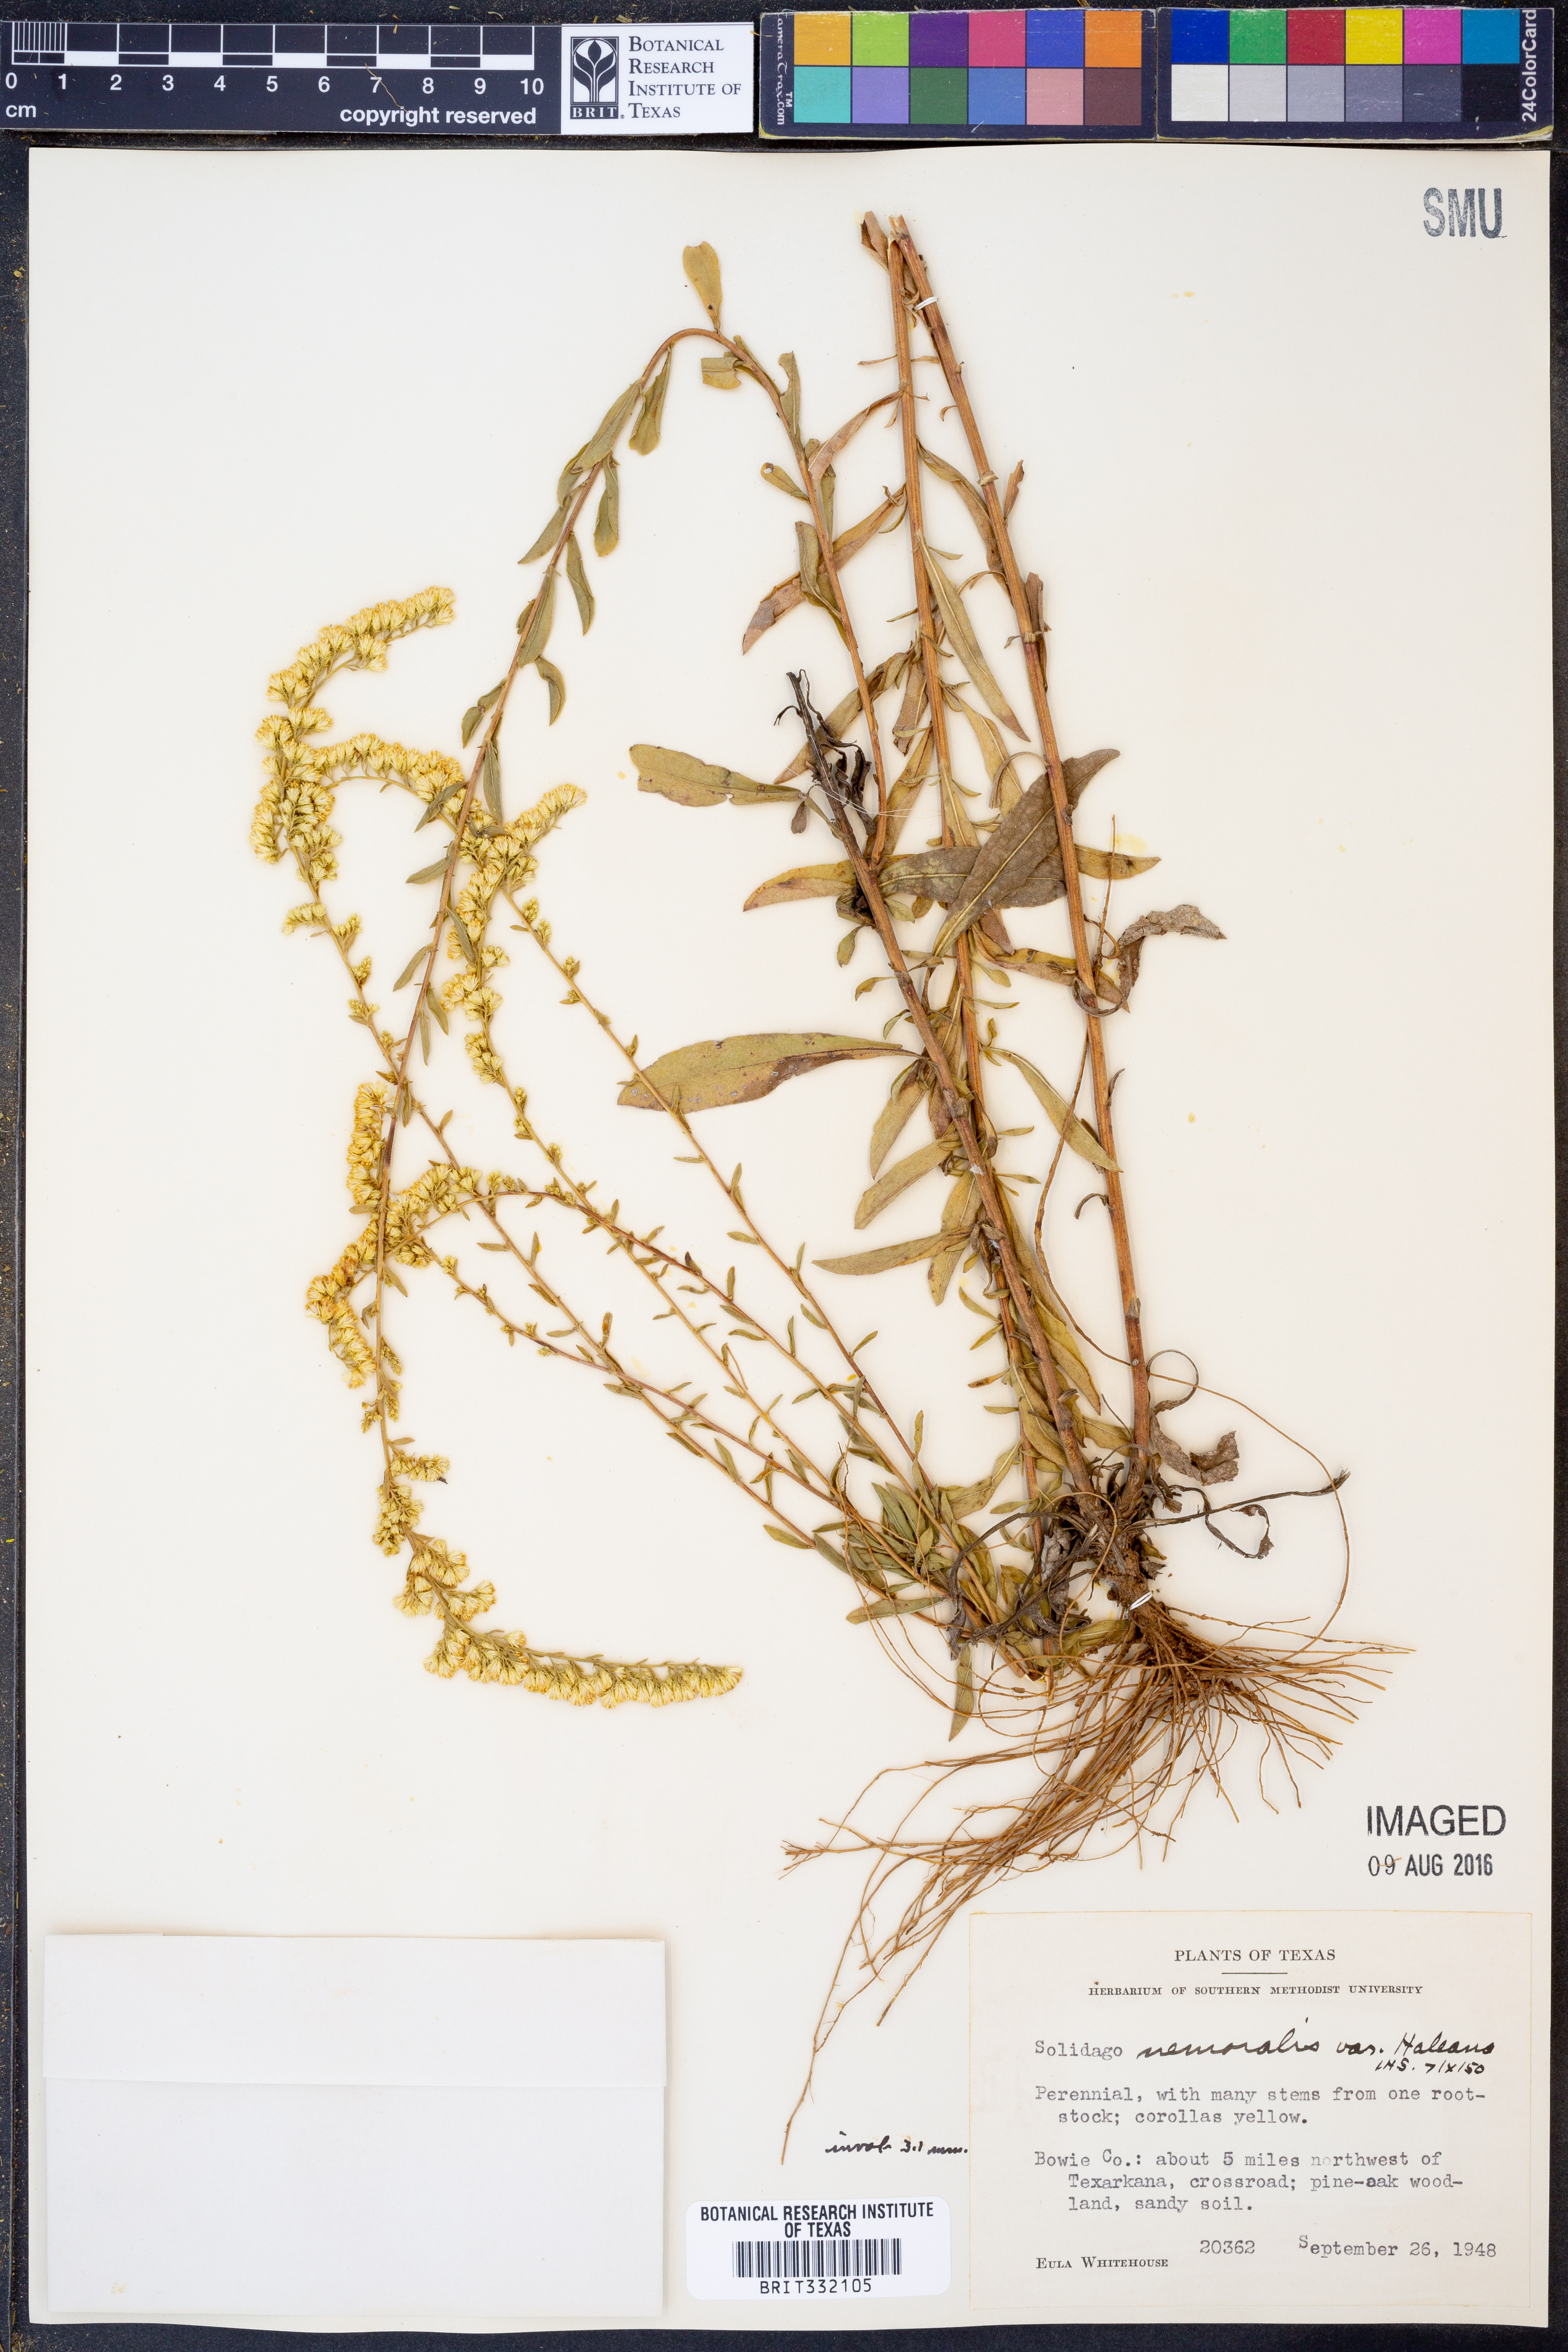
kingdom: Plantae
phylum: Tracheophyta
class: Magnoliopsida
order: Asterales
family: Asteraceae
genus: Solidago
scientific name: Solidago nemoralis
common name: Grey goldenrod
